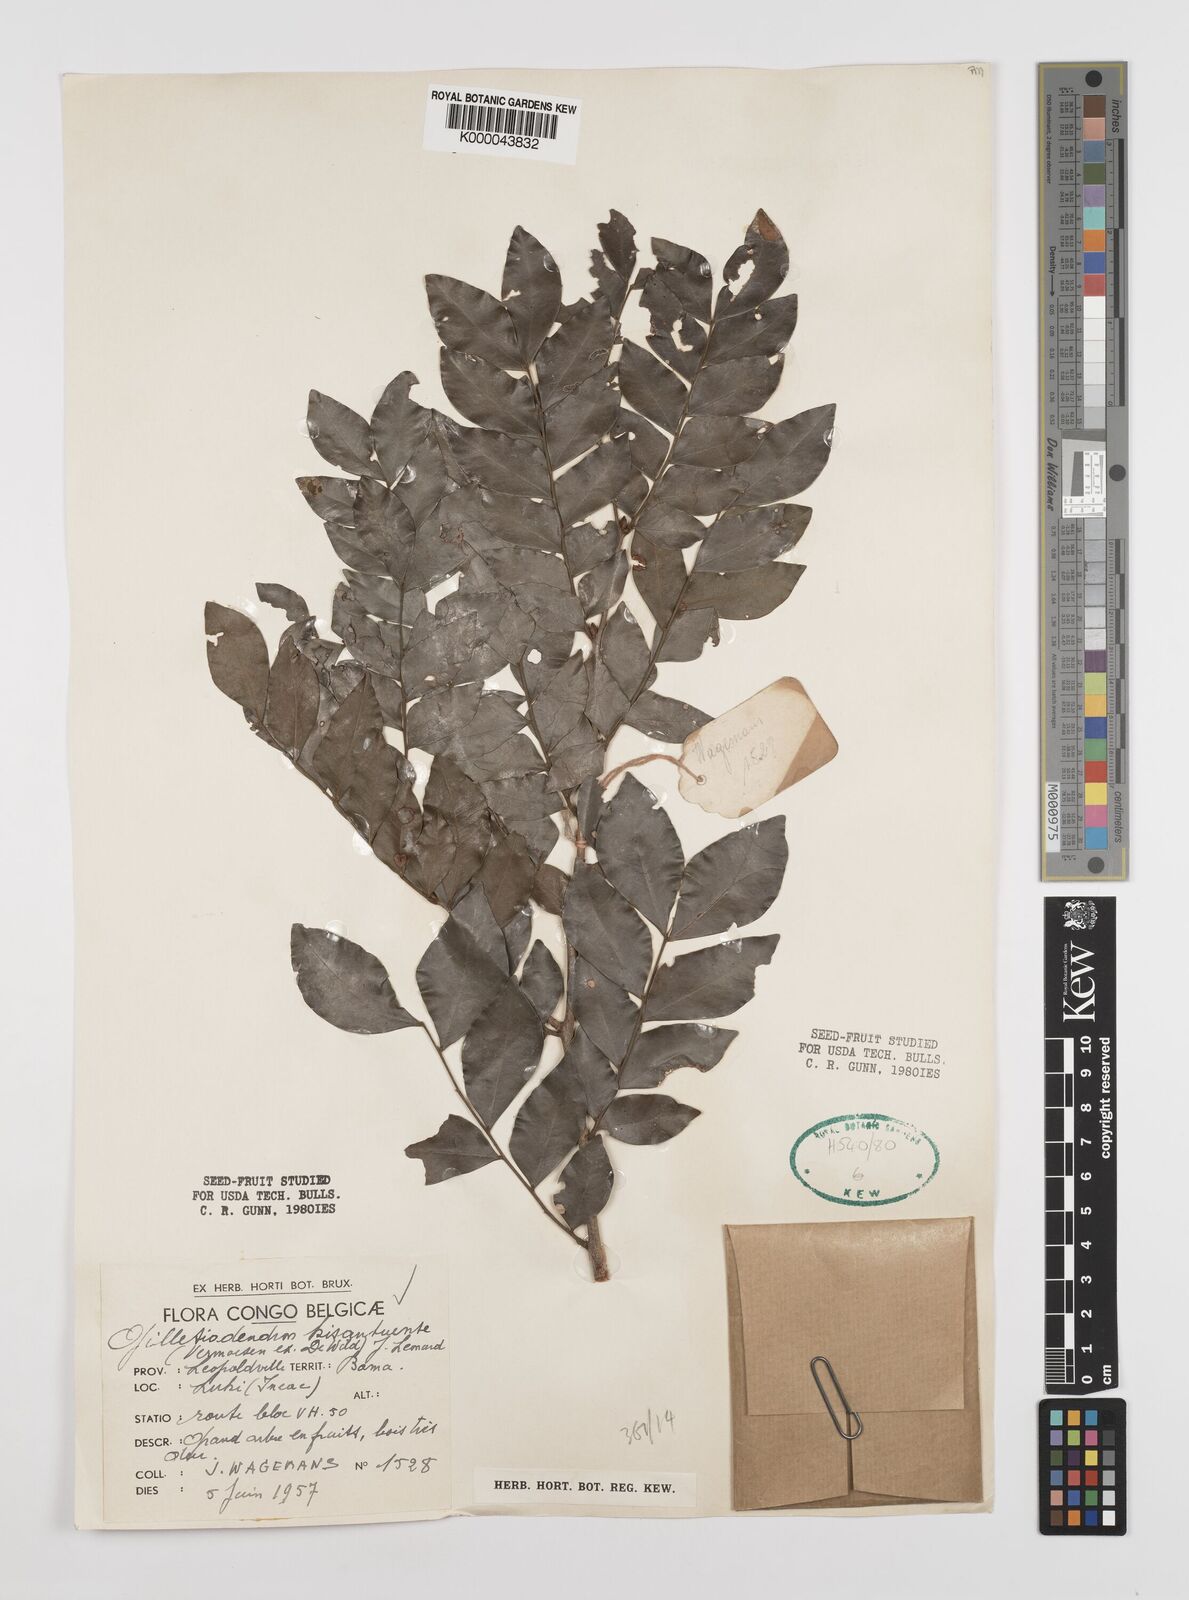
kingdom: Plantae
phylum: Tracheophyta
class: Magnoliopsida
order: Fabales
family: Fabaceae
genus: Guibourtia
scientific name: Guibourtia
